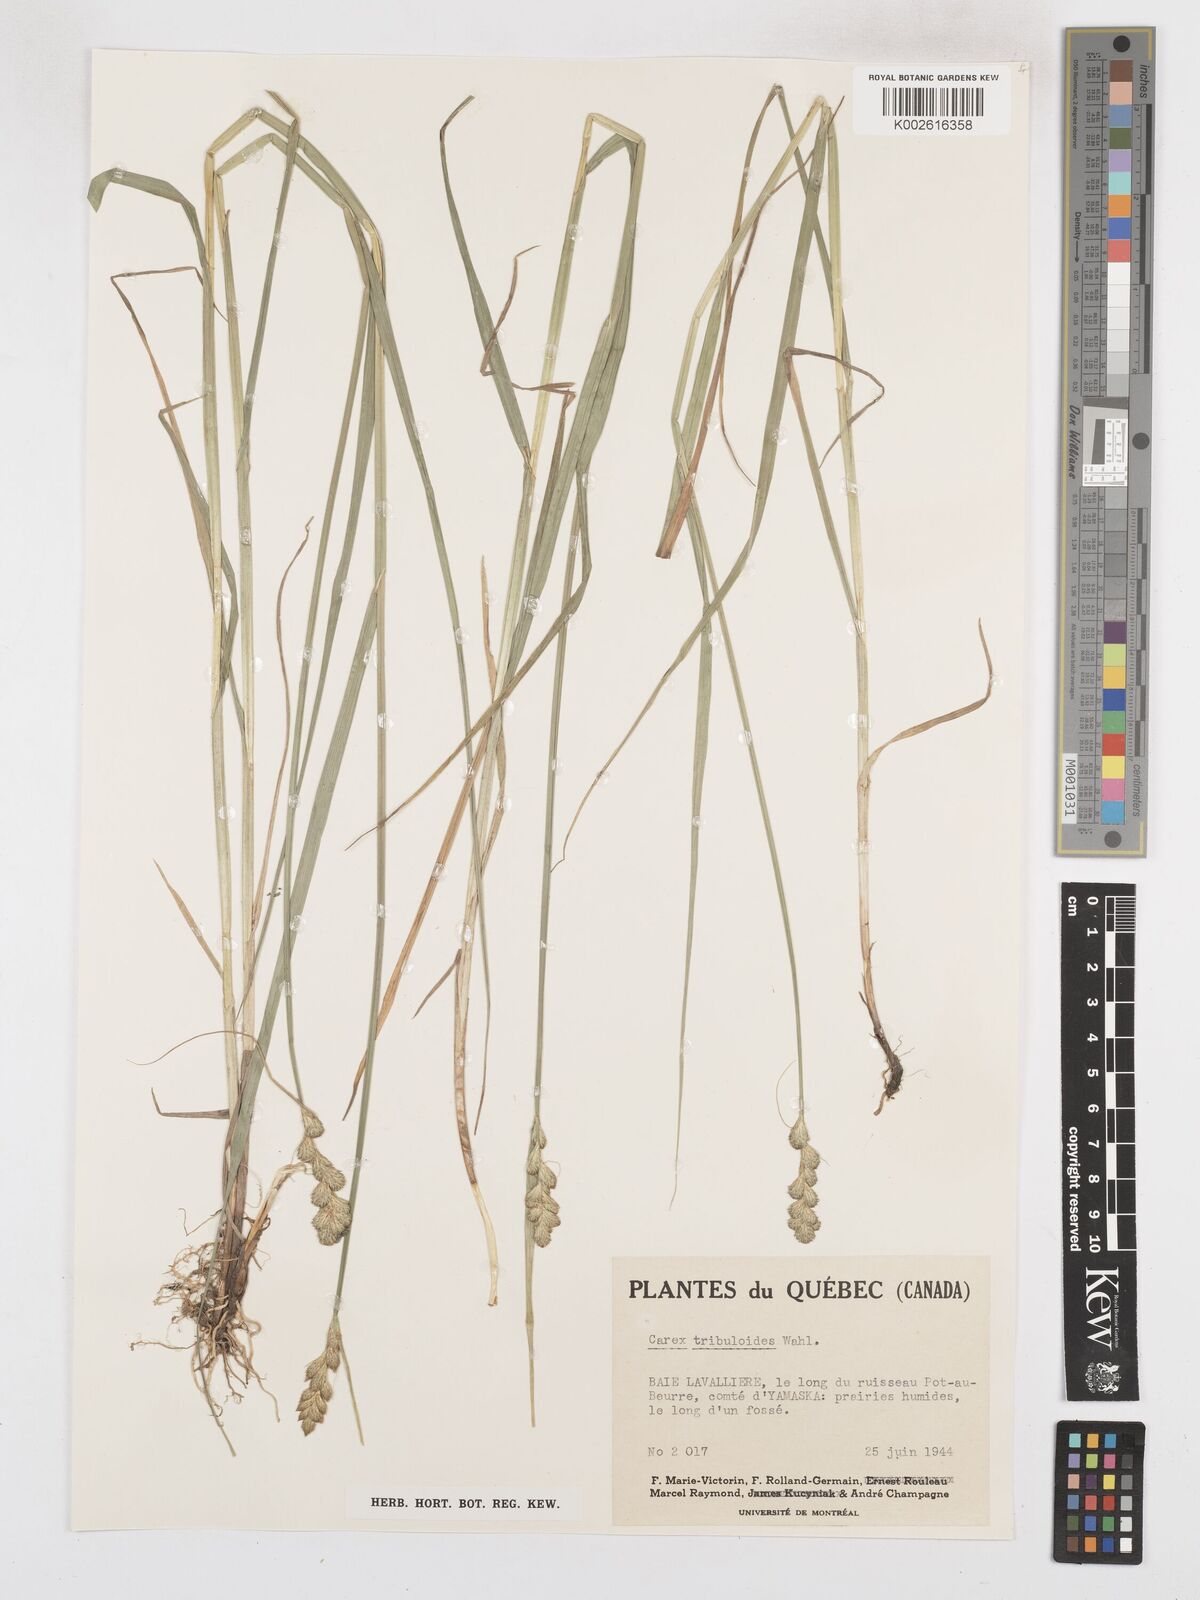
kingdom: Plantae
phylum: Tracheophyta
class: Liliopsida
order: Poales
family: Cyperaceae
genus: Carex
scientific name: Carex tribuloides
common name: Blunt broom sedge
